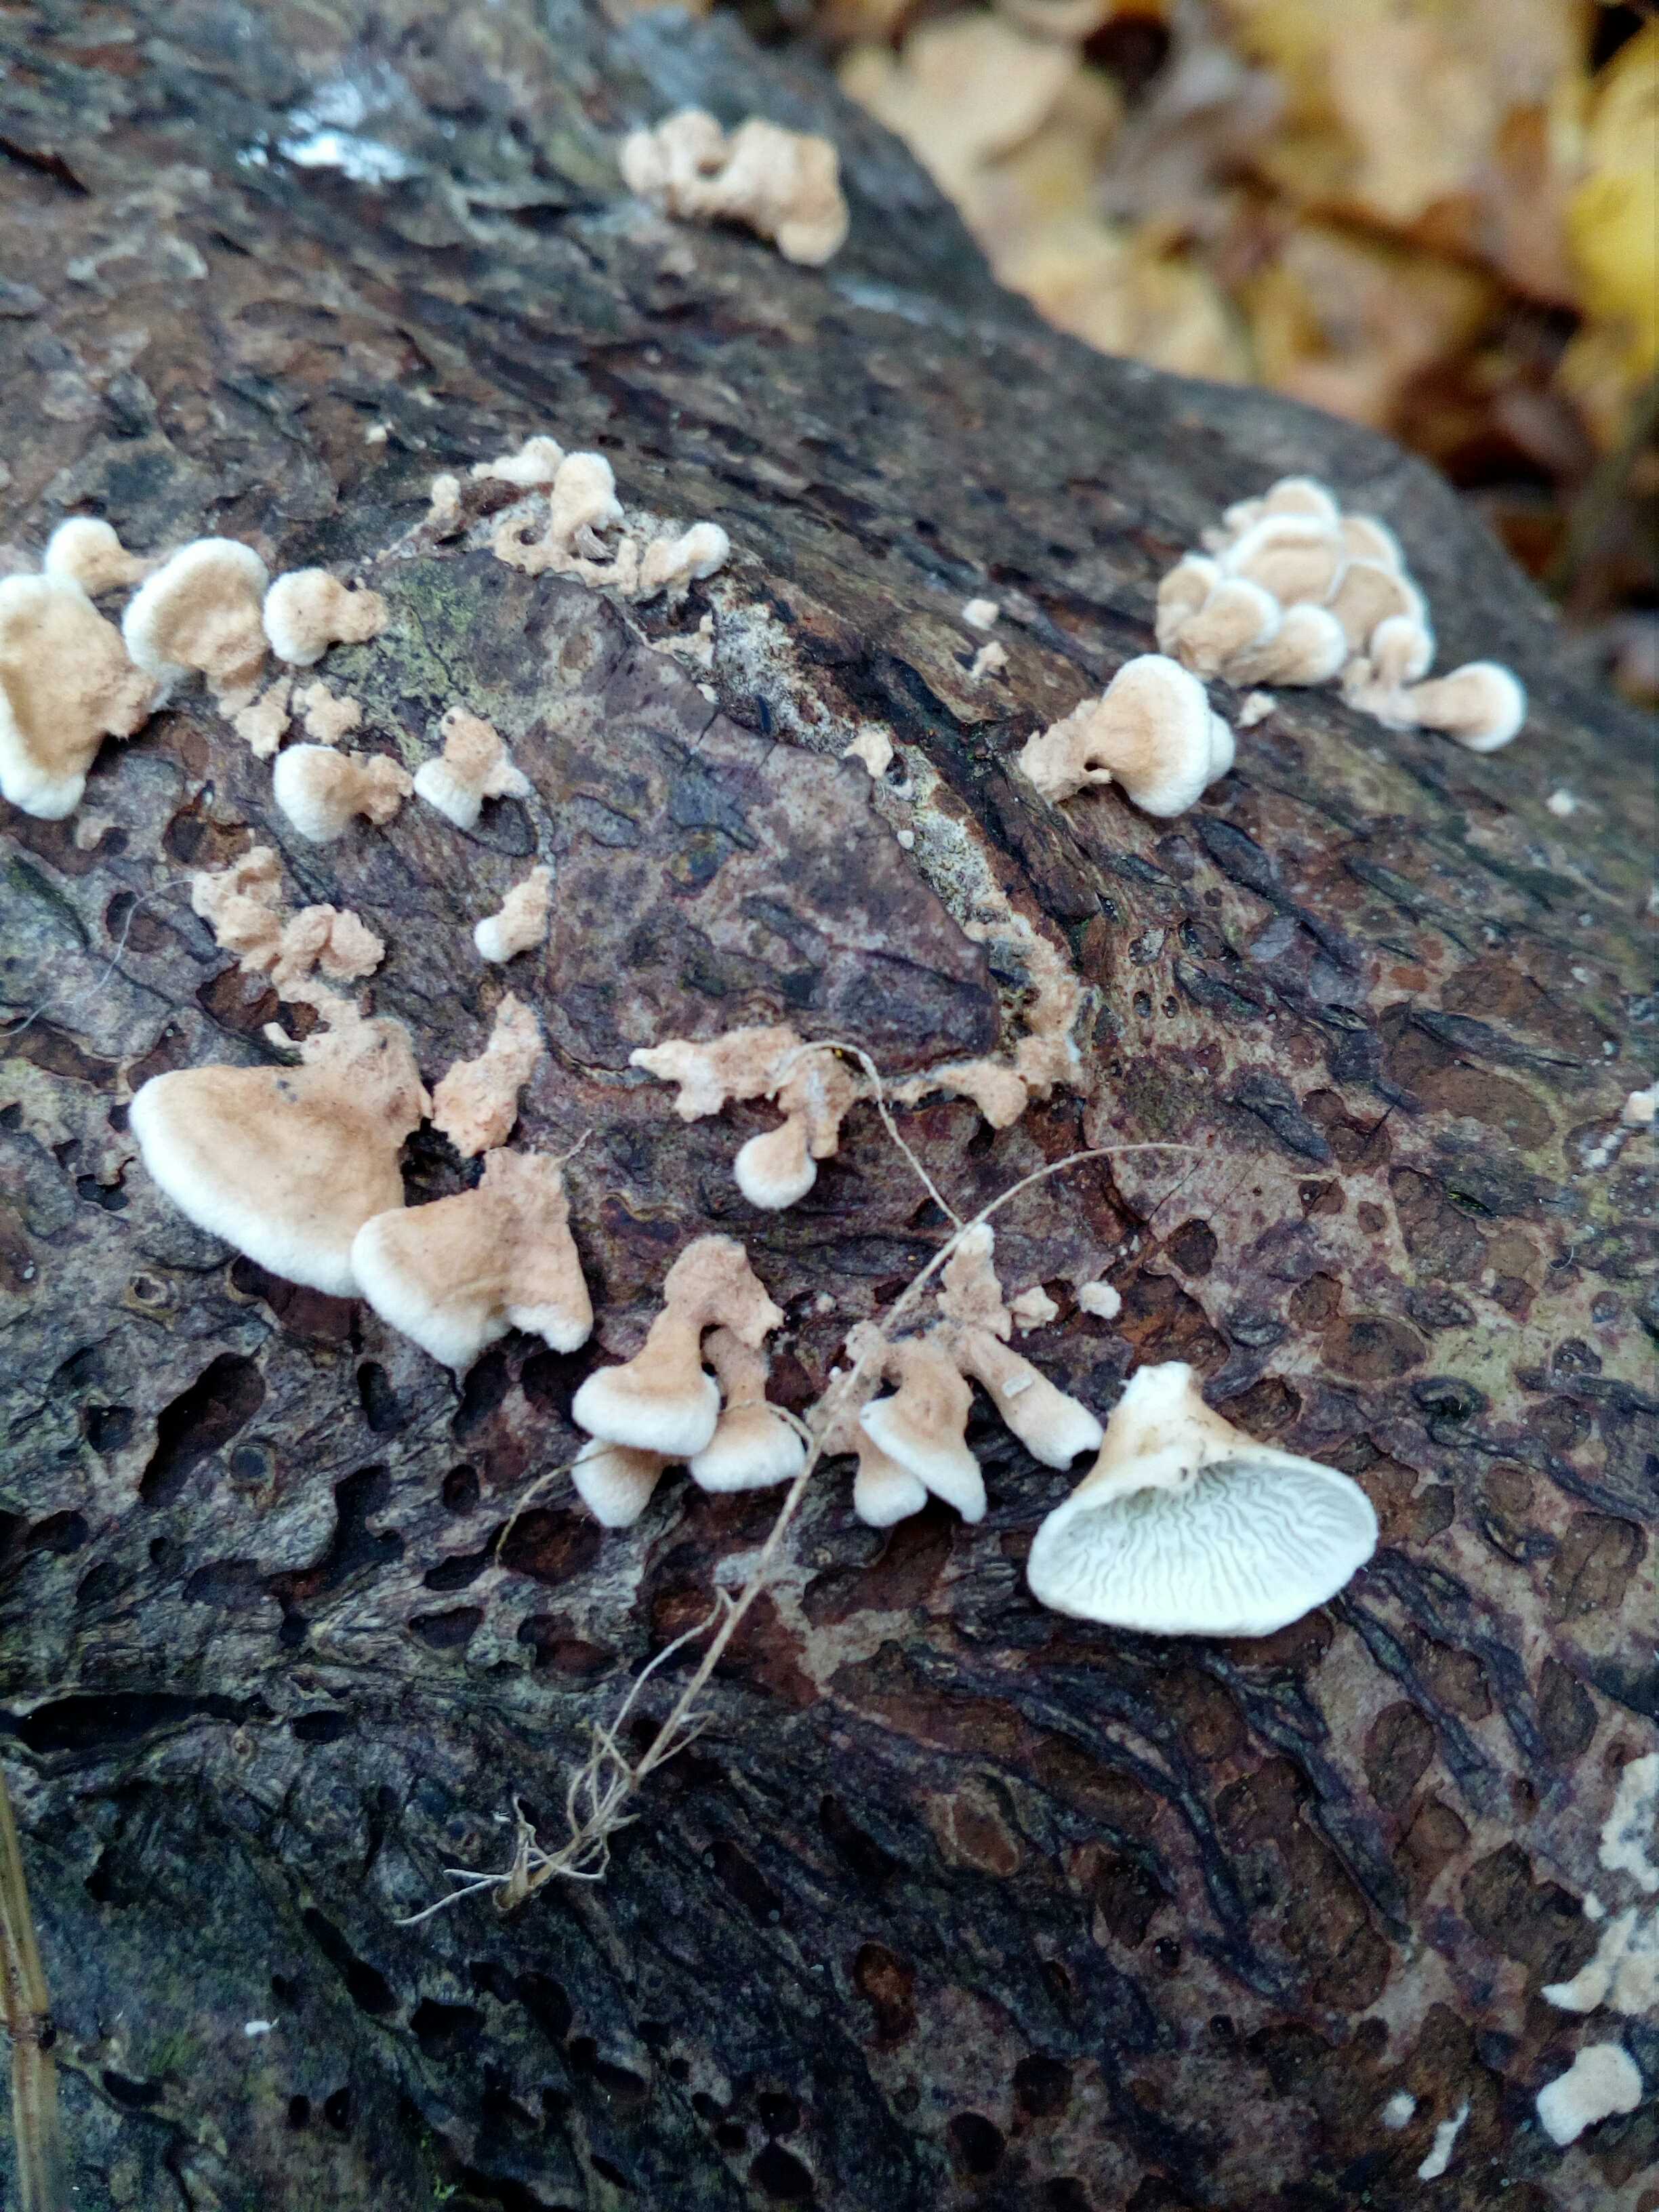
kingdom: Fungi
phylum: Basidiomycota
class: Agaricomycetes
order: Amylocorticiales
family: Amylocorticiaceae
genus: Plicaturopsis
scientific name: Plicaturopsis crispa
